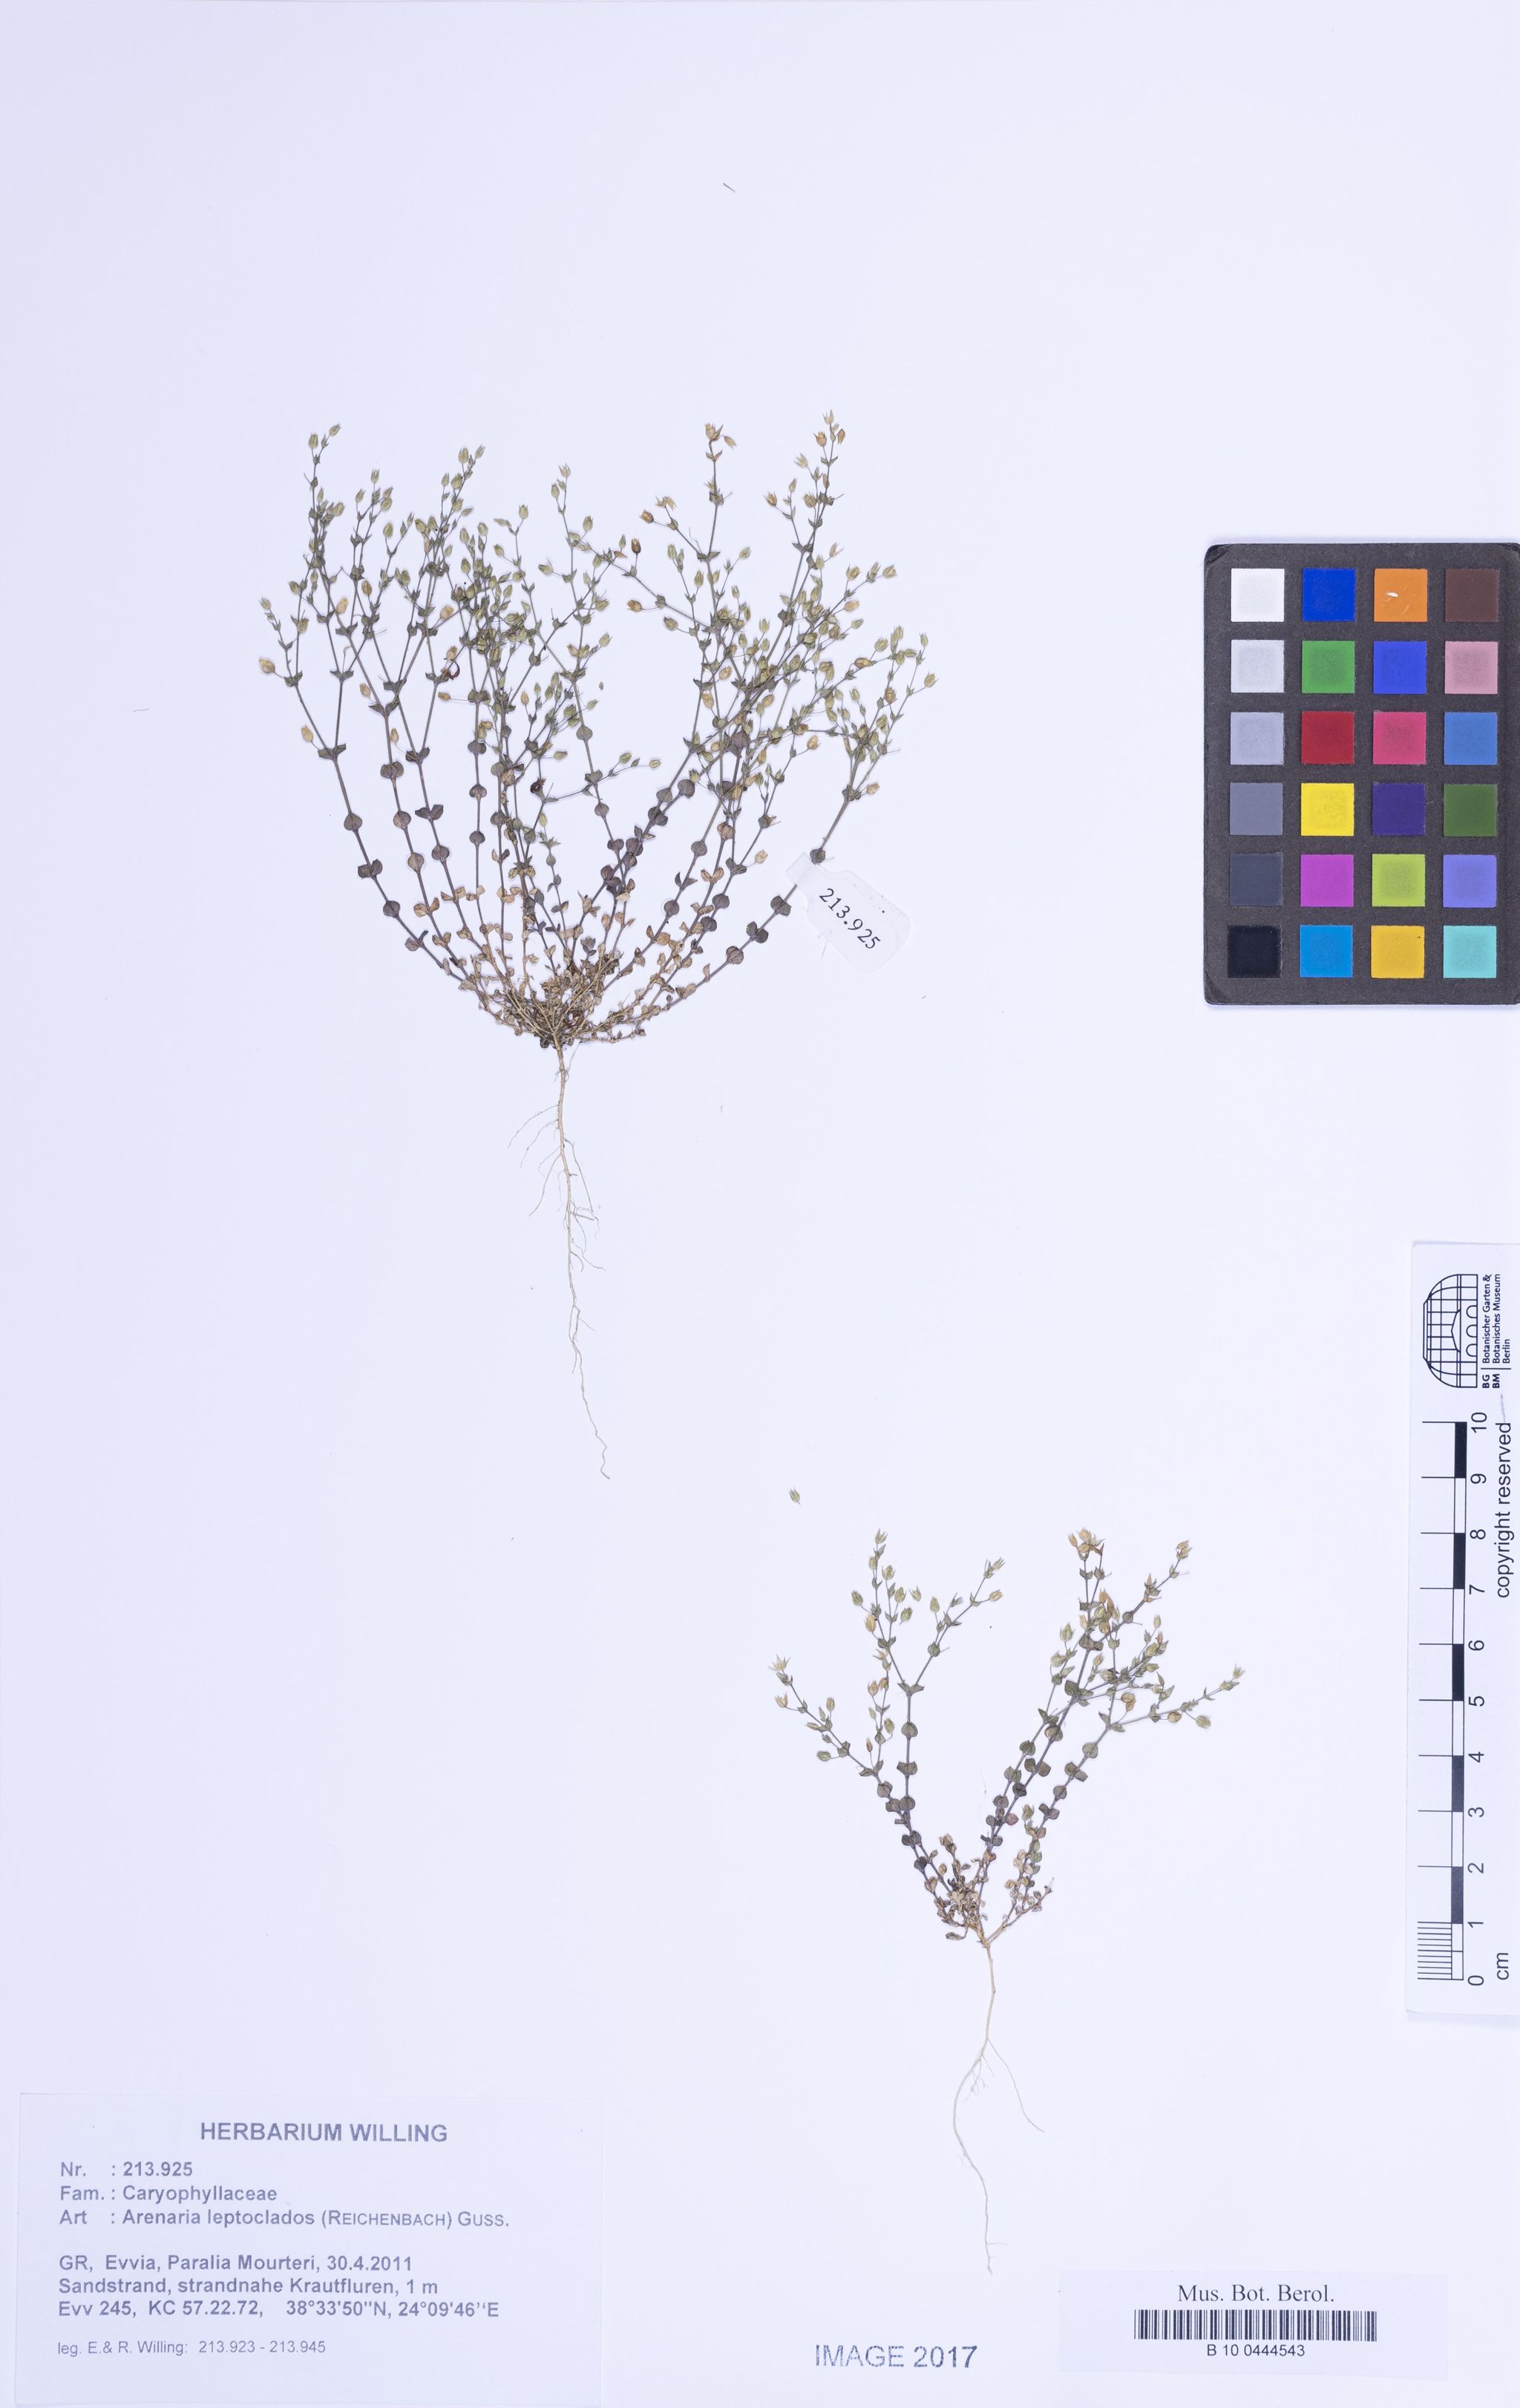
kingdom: Plantae
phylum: Tracheophyta
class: Magnoliopsida
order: Caryophyllales
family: Caryophyllaceae
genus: Arenaria
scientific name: Arenaria leptoclados
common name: Thyme-leaved sandwort
